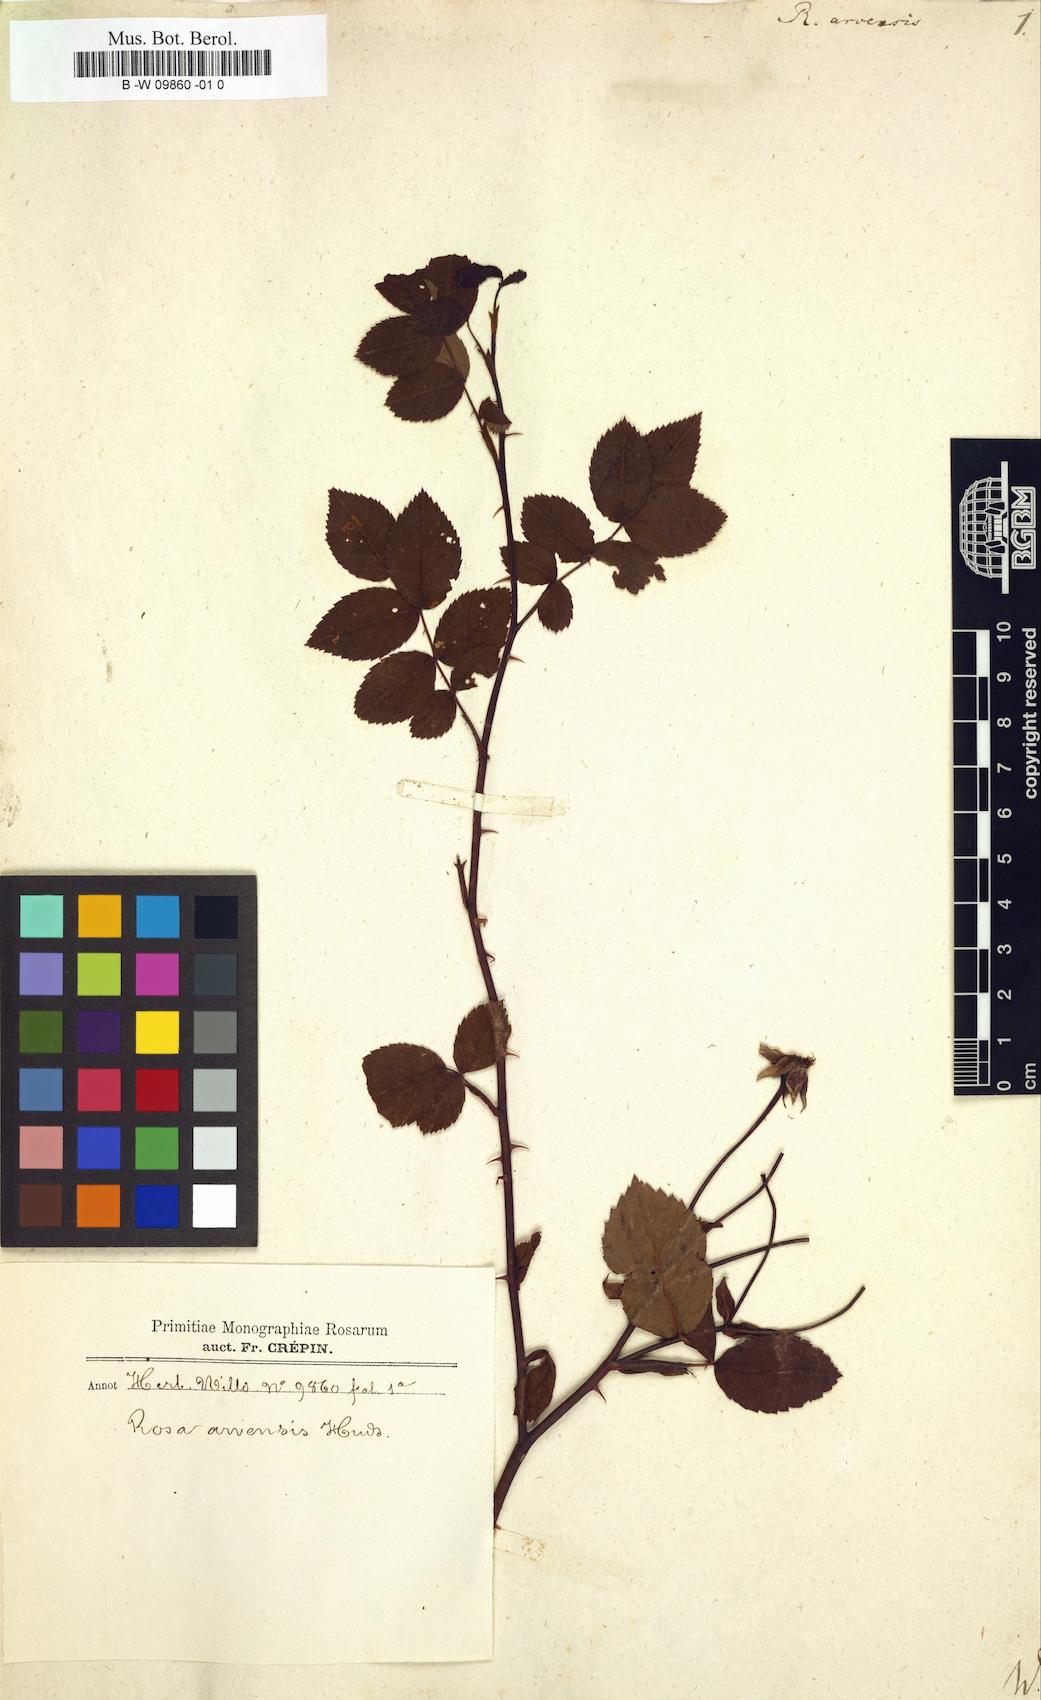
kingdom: Plantae
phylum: Tracheophyta
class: Magnoliopsida
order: Rosales
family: Rosaceae
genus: Rosa
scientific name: Rosa arvensis
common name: Field rose
